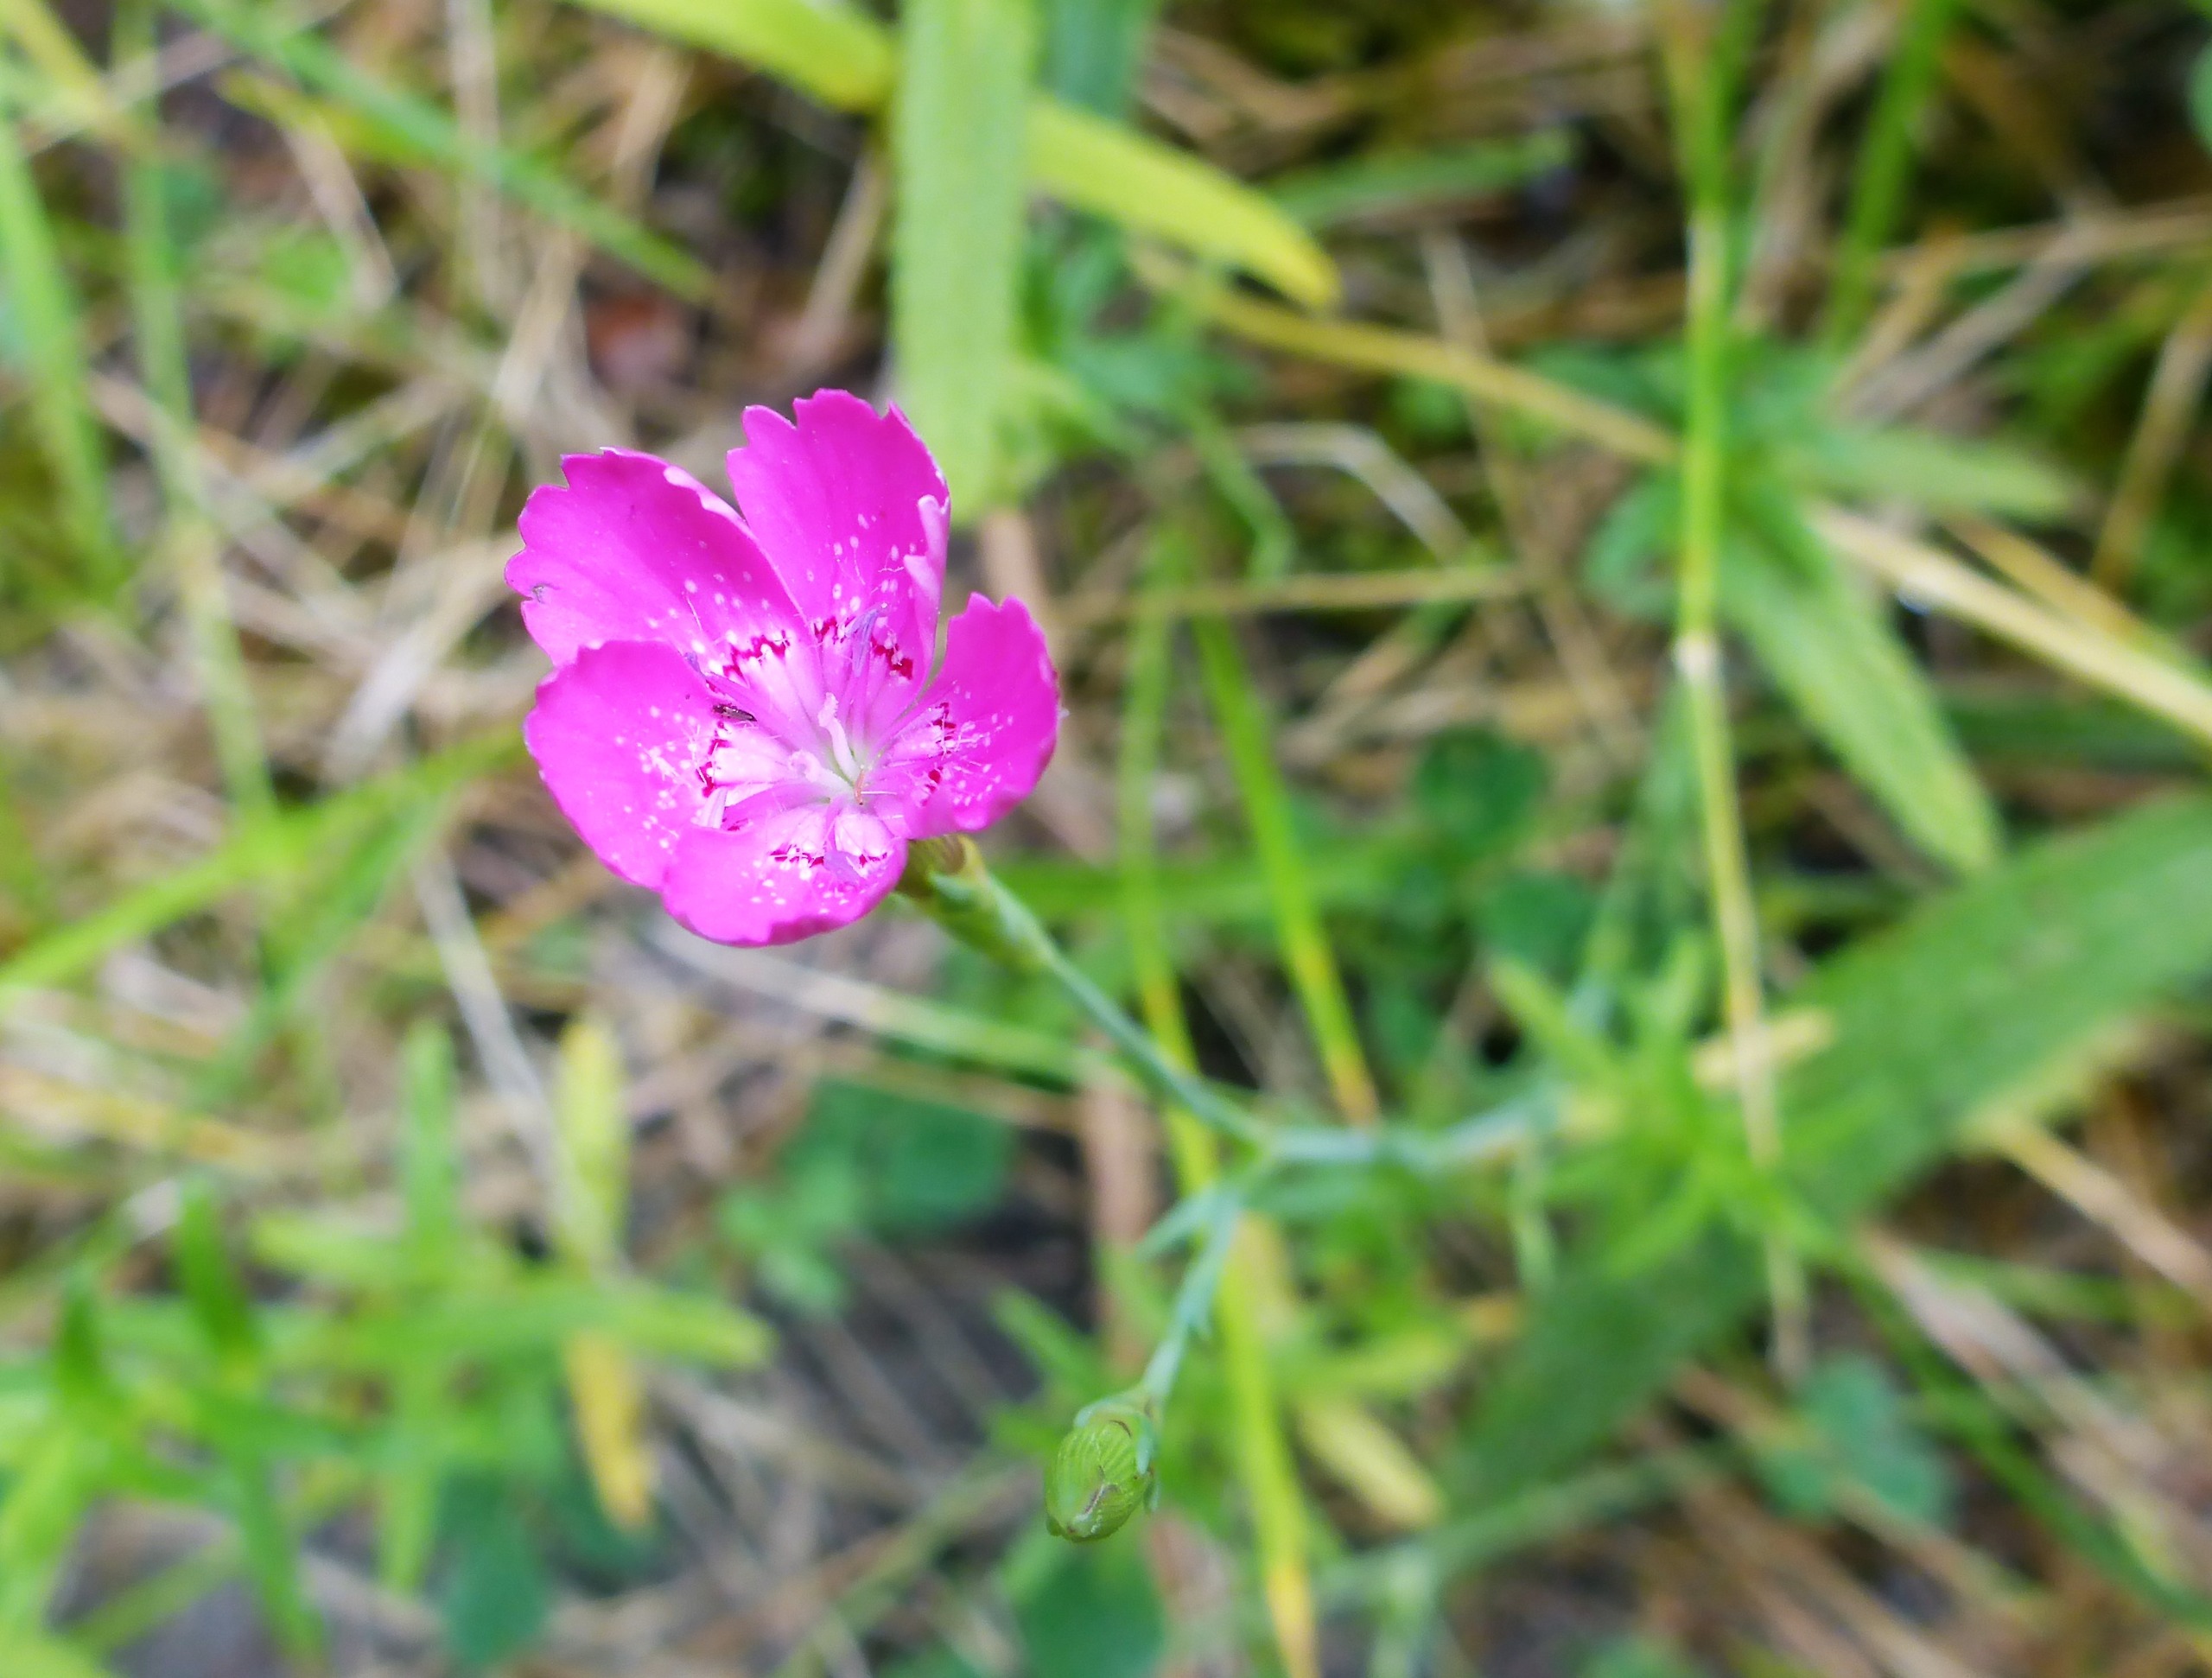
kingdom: Plantae
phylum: Tracheophyta
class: Magnoliopsida
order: Caryophyllales
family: Caryophyllaceae
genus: Dianthus
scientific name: Dianthus deltoides
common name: Bakke-nellike
